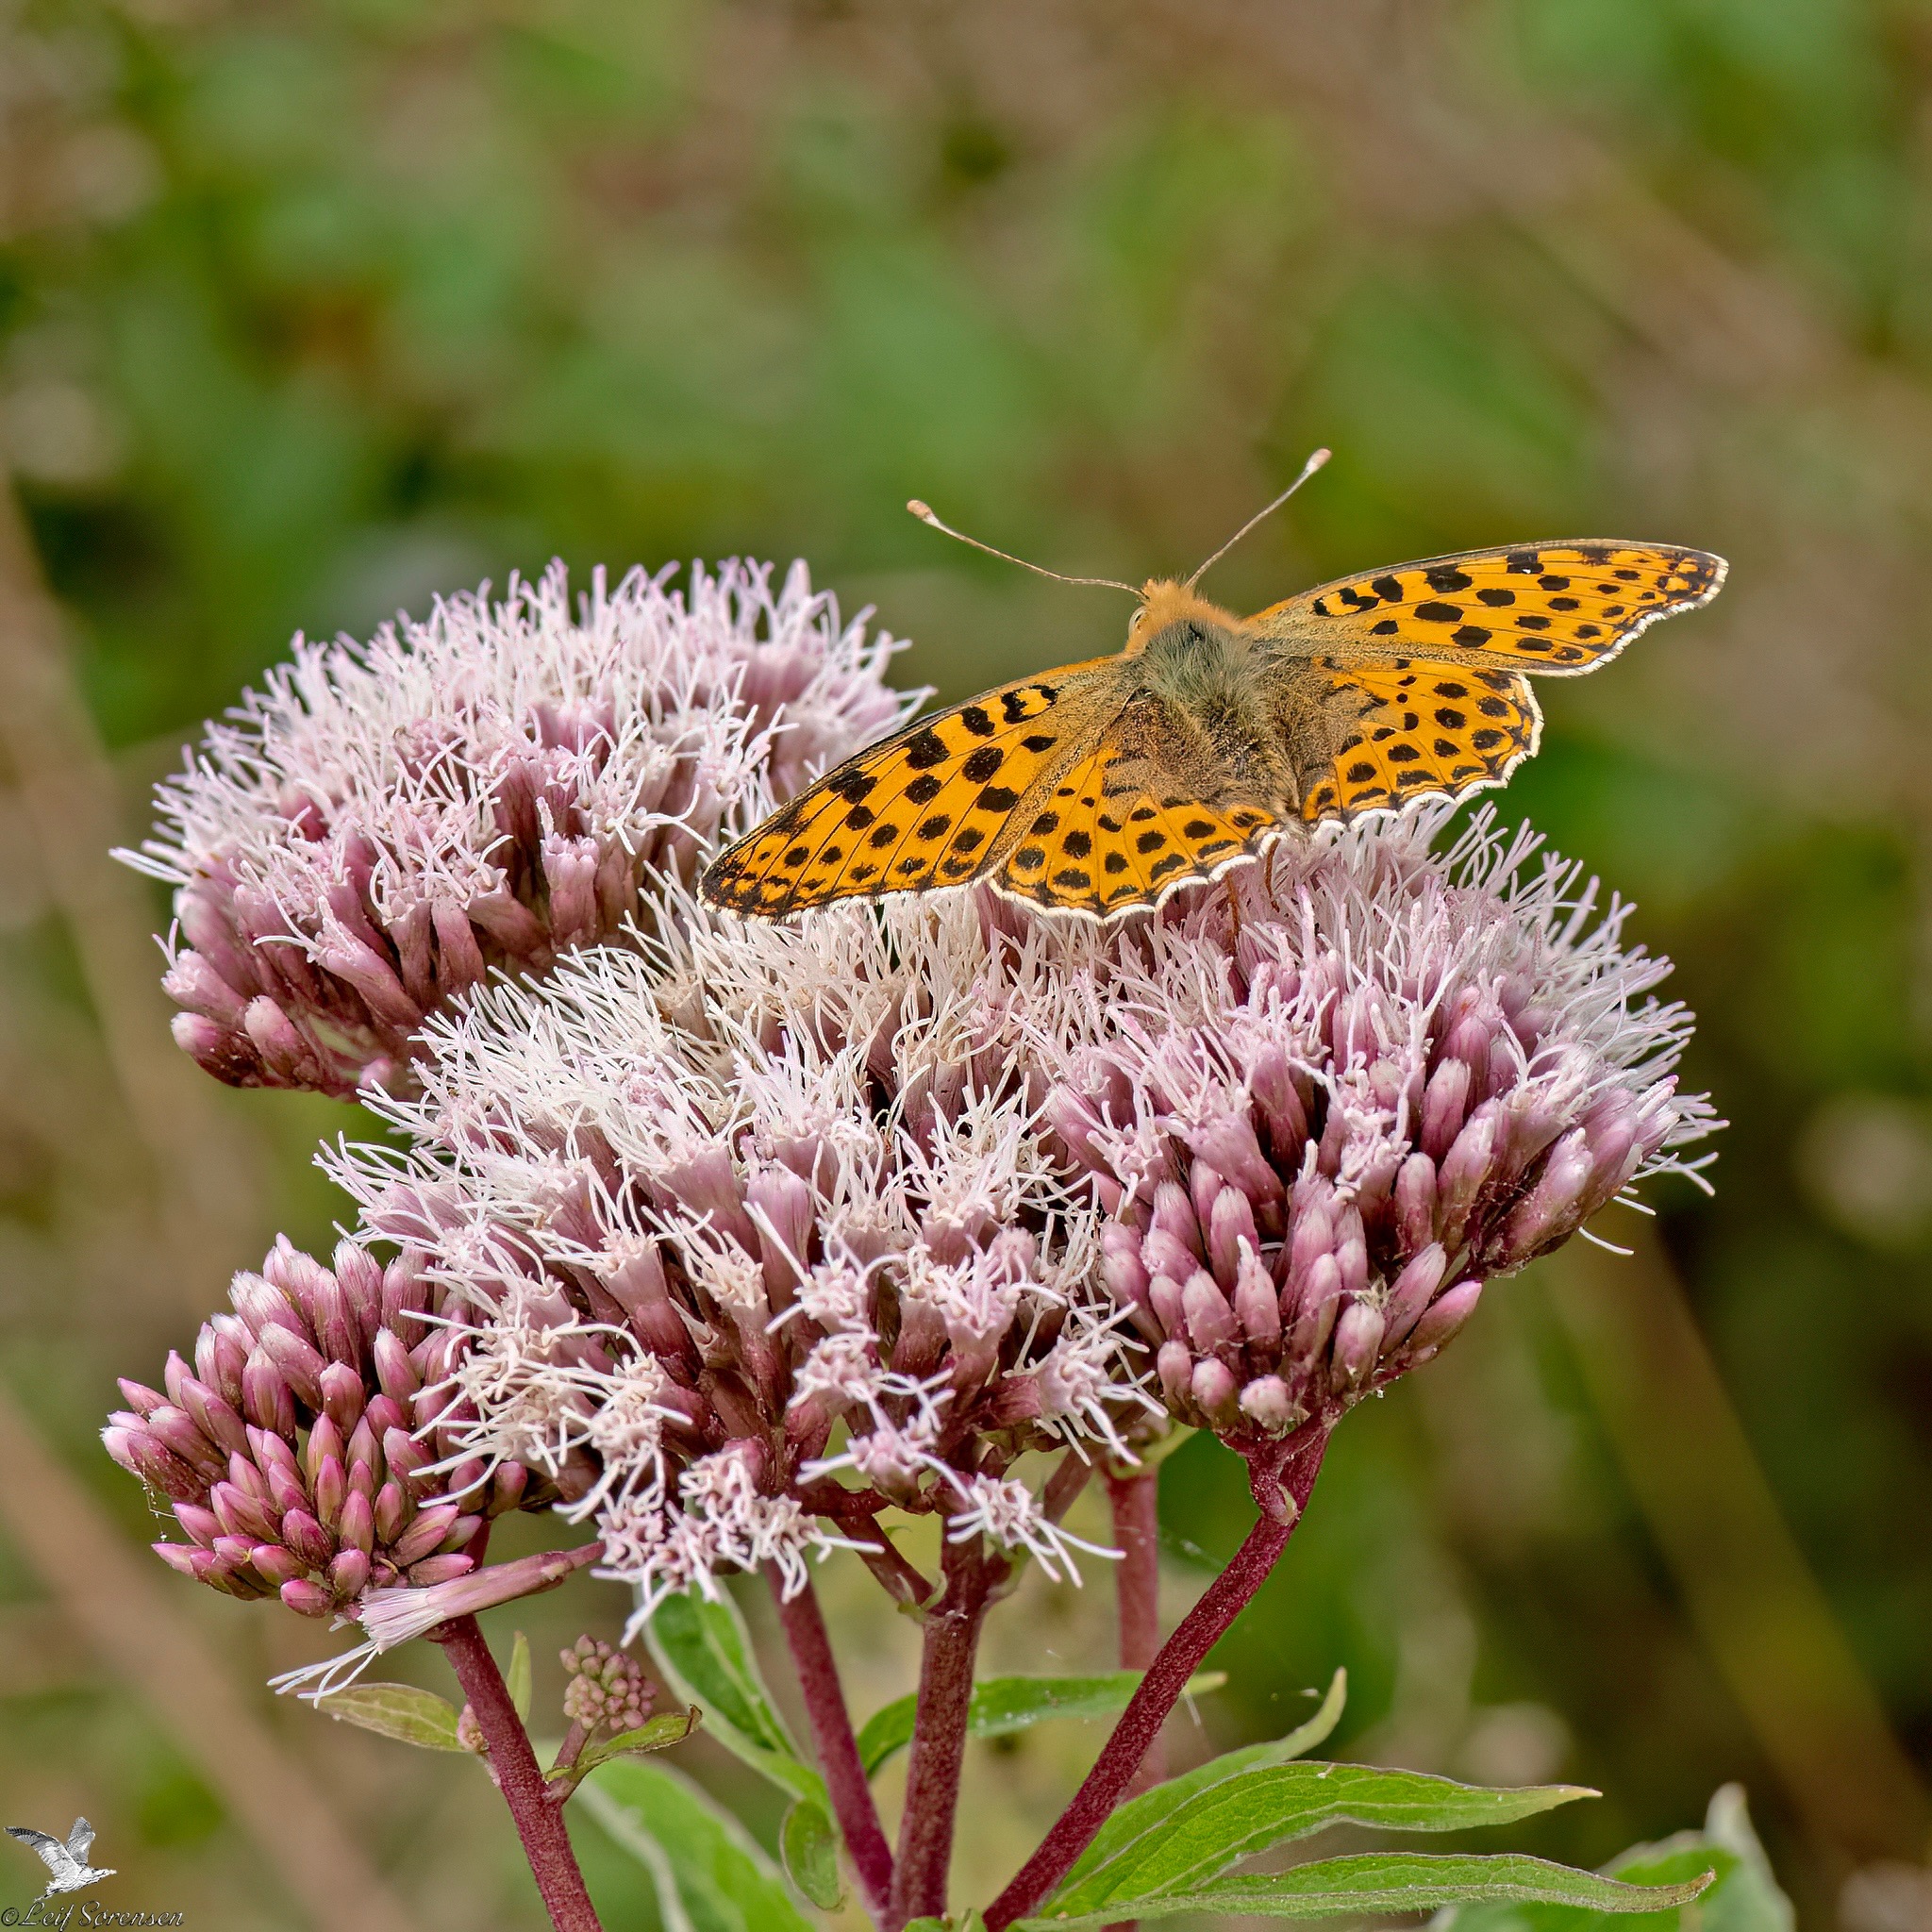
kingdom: Animalia
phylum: Arthropoda
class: Insecta
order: Lepidoptera
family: Nymphalidae
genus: Issoria
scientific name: Issoria lathonia
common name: Storplettet perlemorsommerfugl
